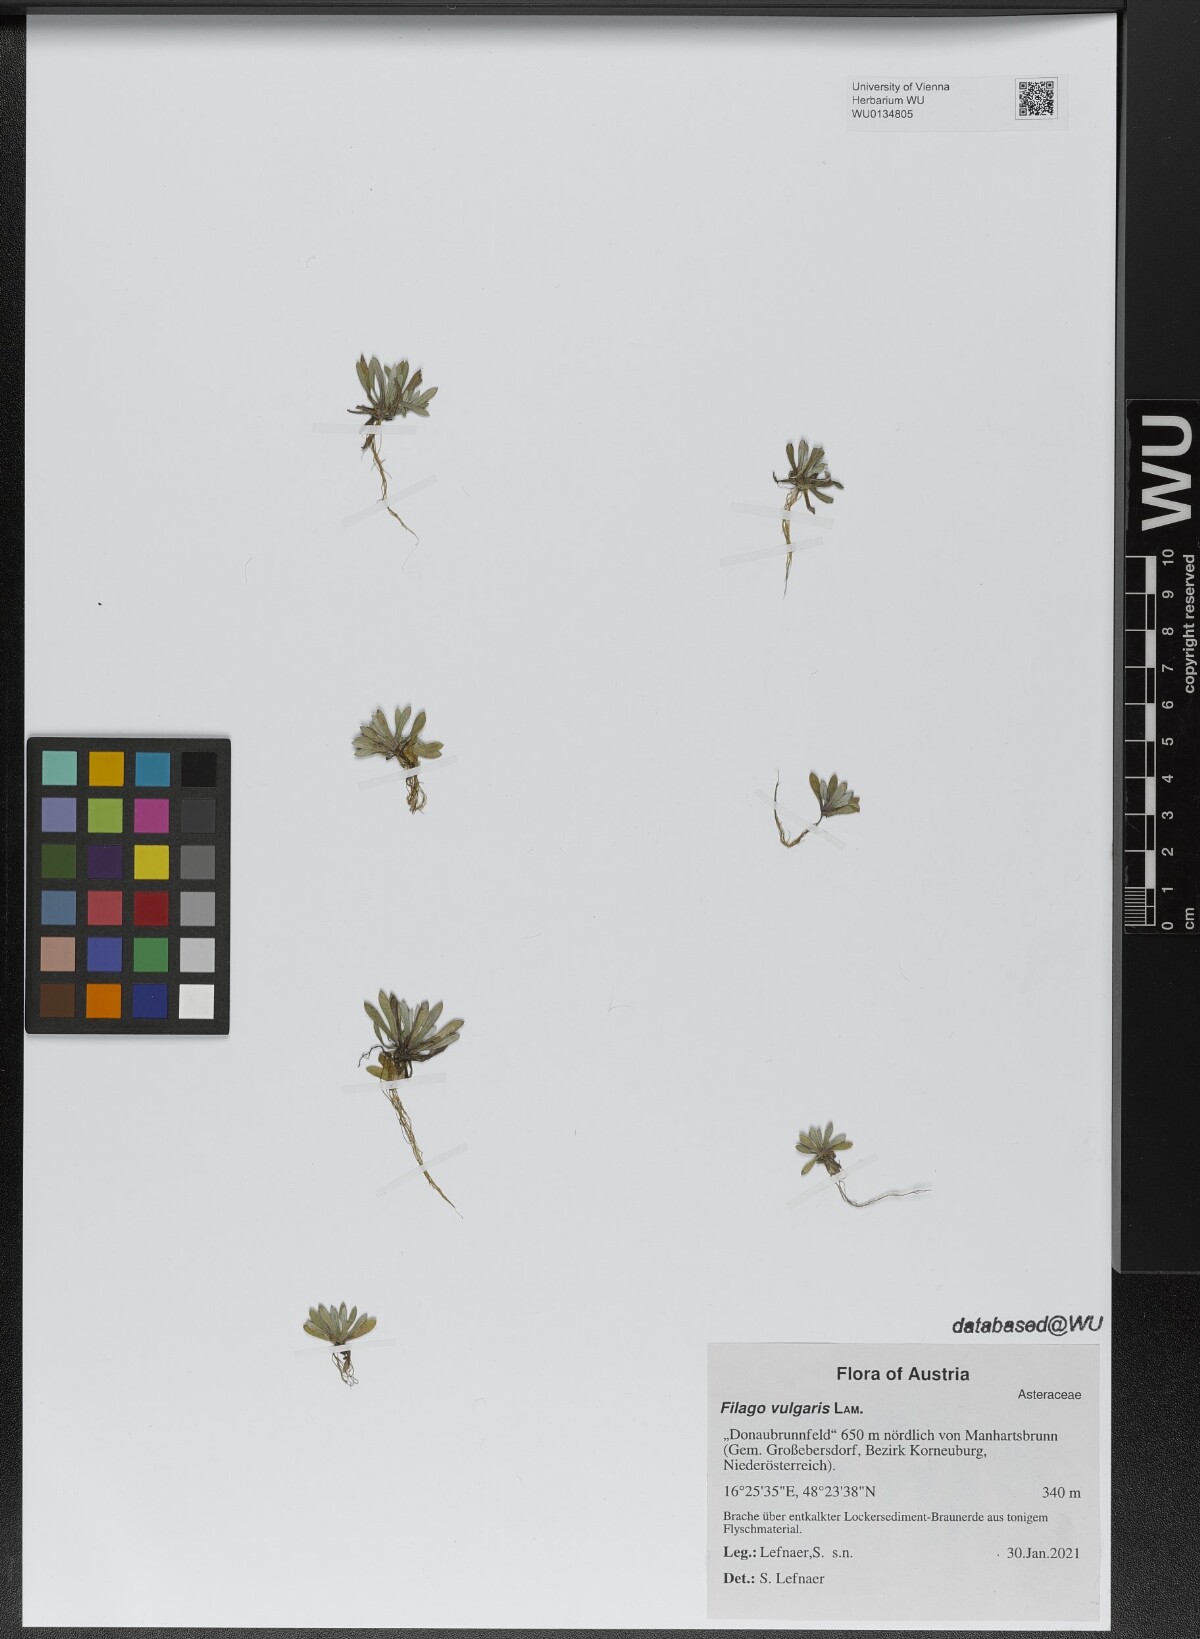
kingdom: Plantae
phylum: Tracheophyta
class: Magnoliopsida
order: Asterales
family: Asteraceae
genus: Filago
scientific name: Filago germanica
